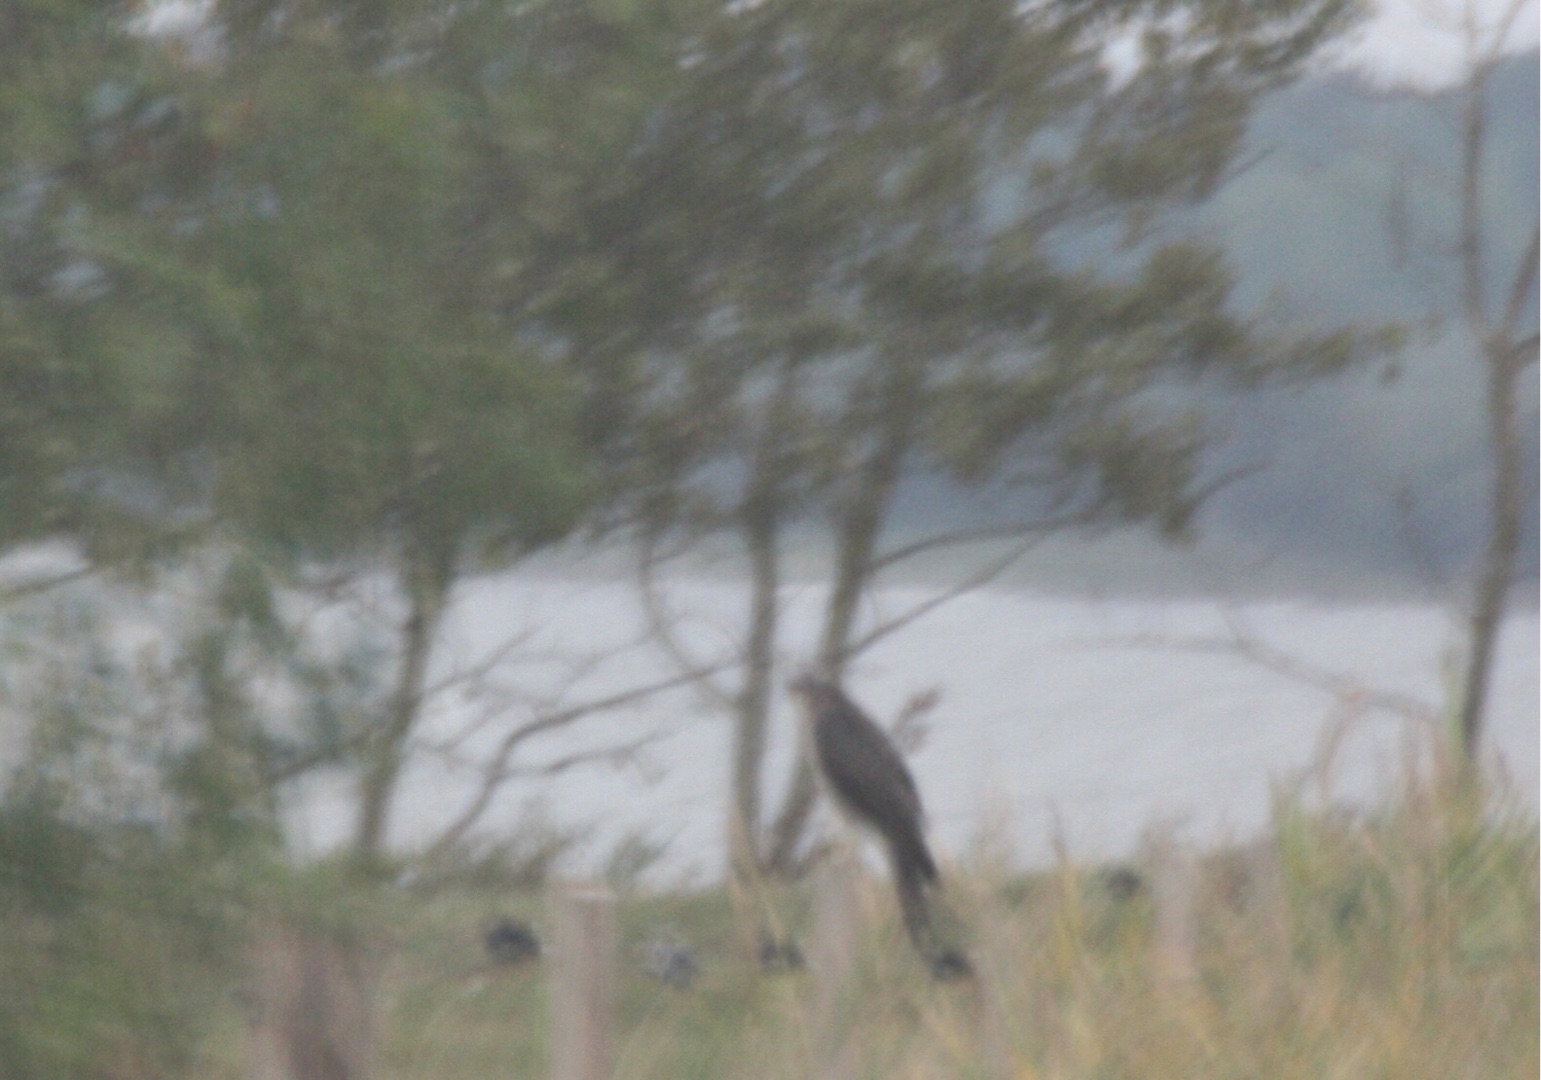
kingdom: Animalia
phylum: Chordata
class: Aves
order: Accipitriformes
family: Accipitridae
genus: Accipiter
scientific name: Accipiter nisus
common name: Spurvehøg
